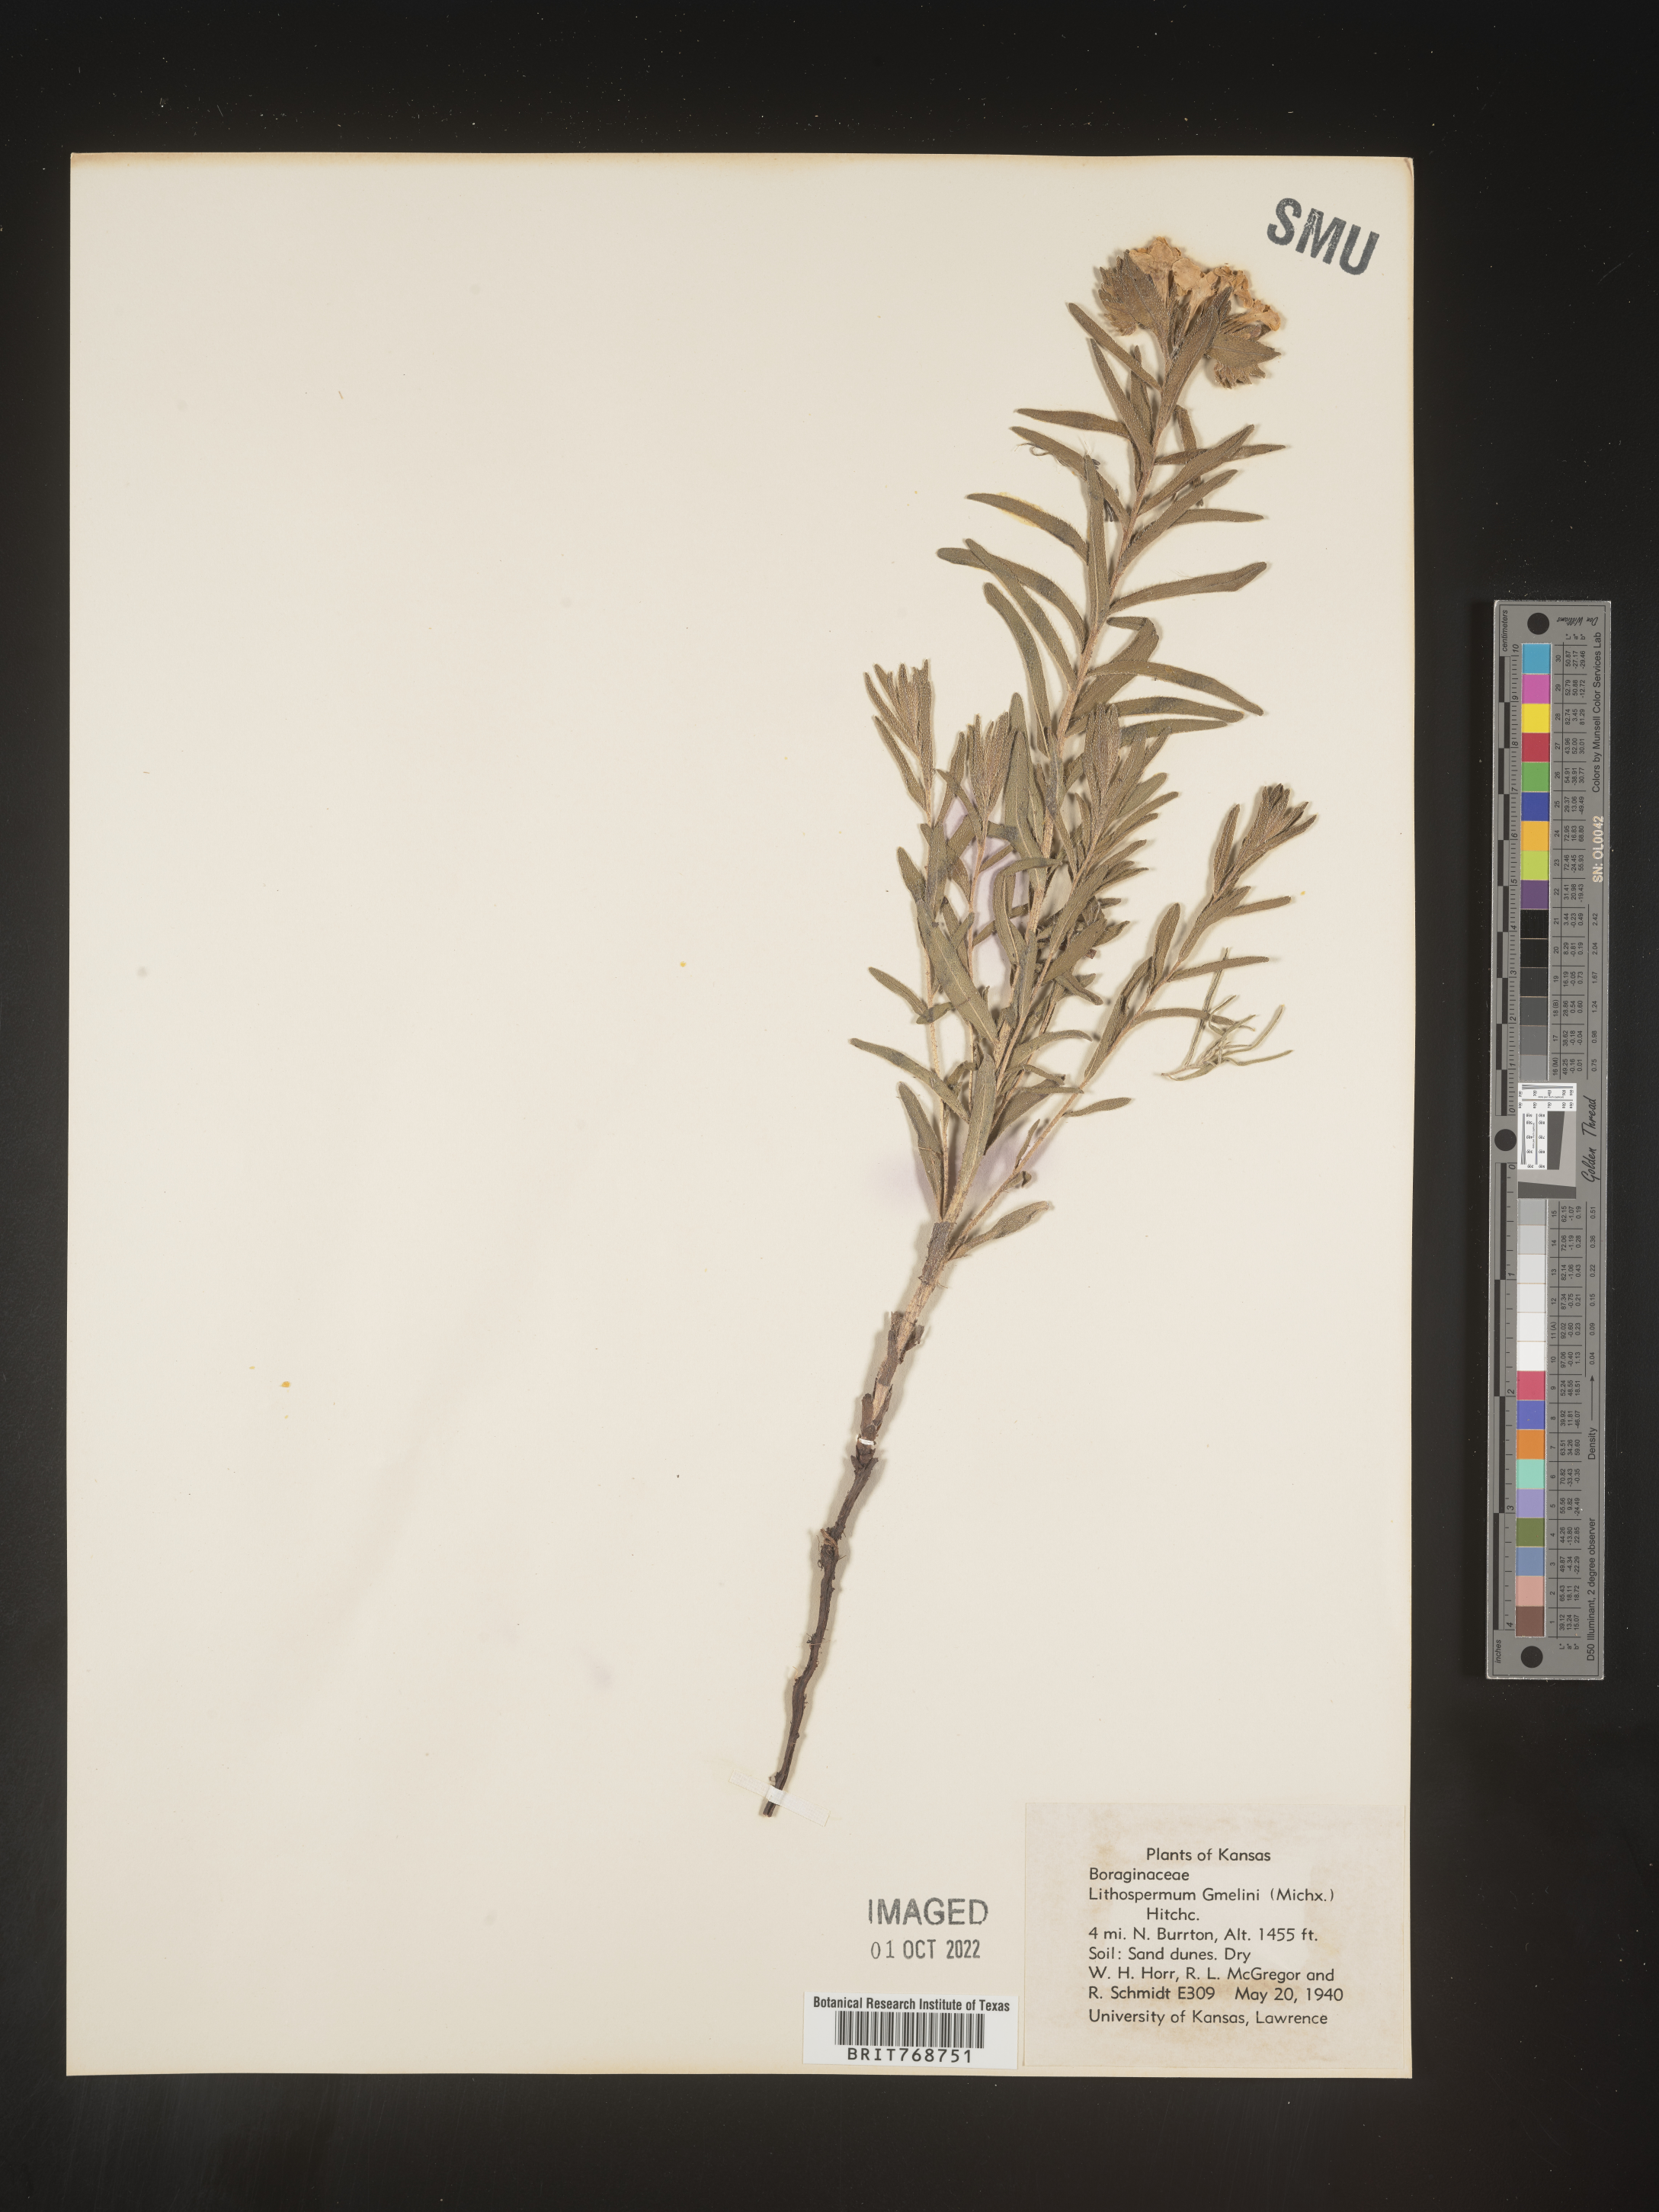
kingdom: Plantae
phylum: Tracheophyta
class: Magnoliopsida
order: Boraginales
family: Boraginaceae
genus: Lithospermum
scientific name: Lithospermum caroliniense
